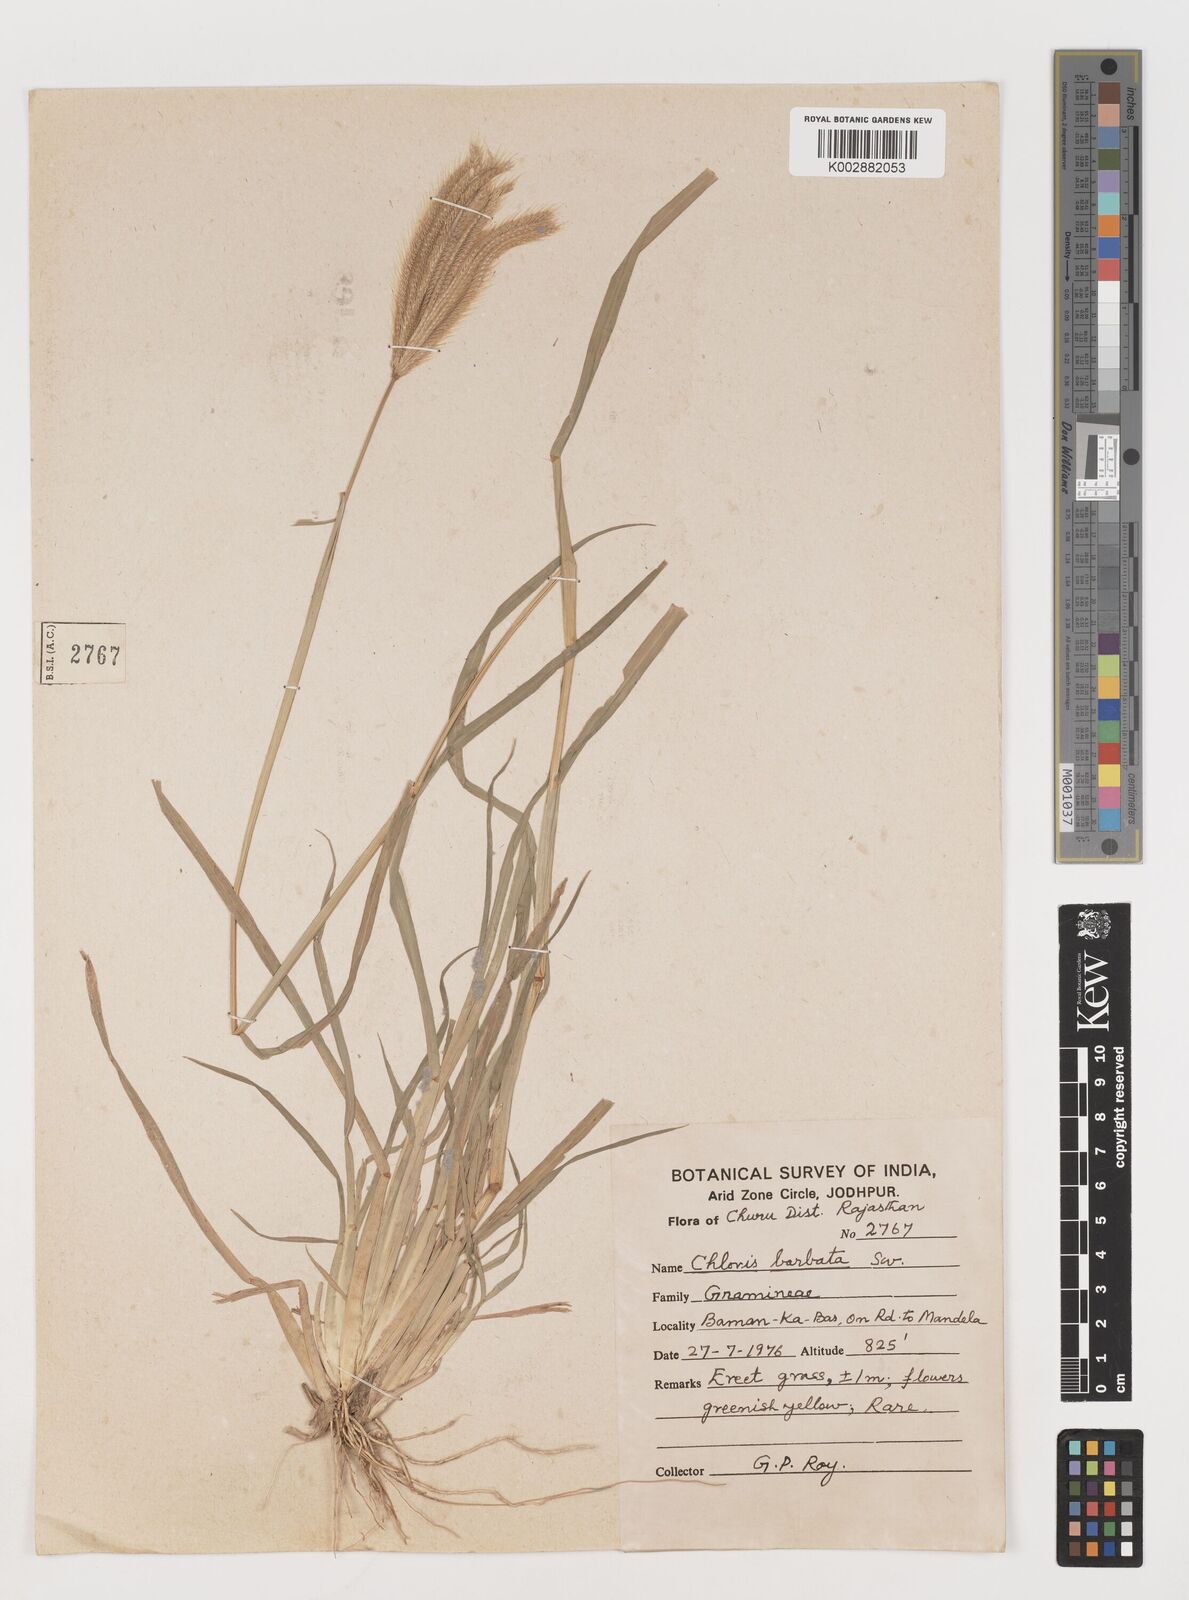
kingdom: Plantae
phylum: Tracheophyta
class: Liliopsida
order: Poales
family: Poaceae
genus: Chloris
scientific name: Chloris barbata
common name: Swollen fingergrass
